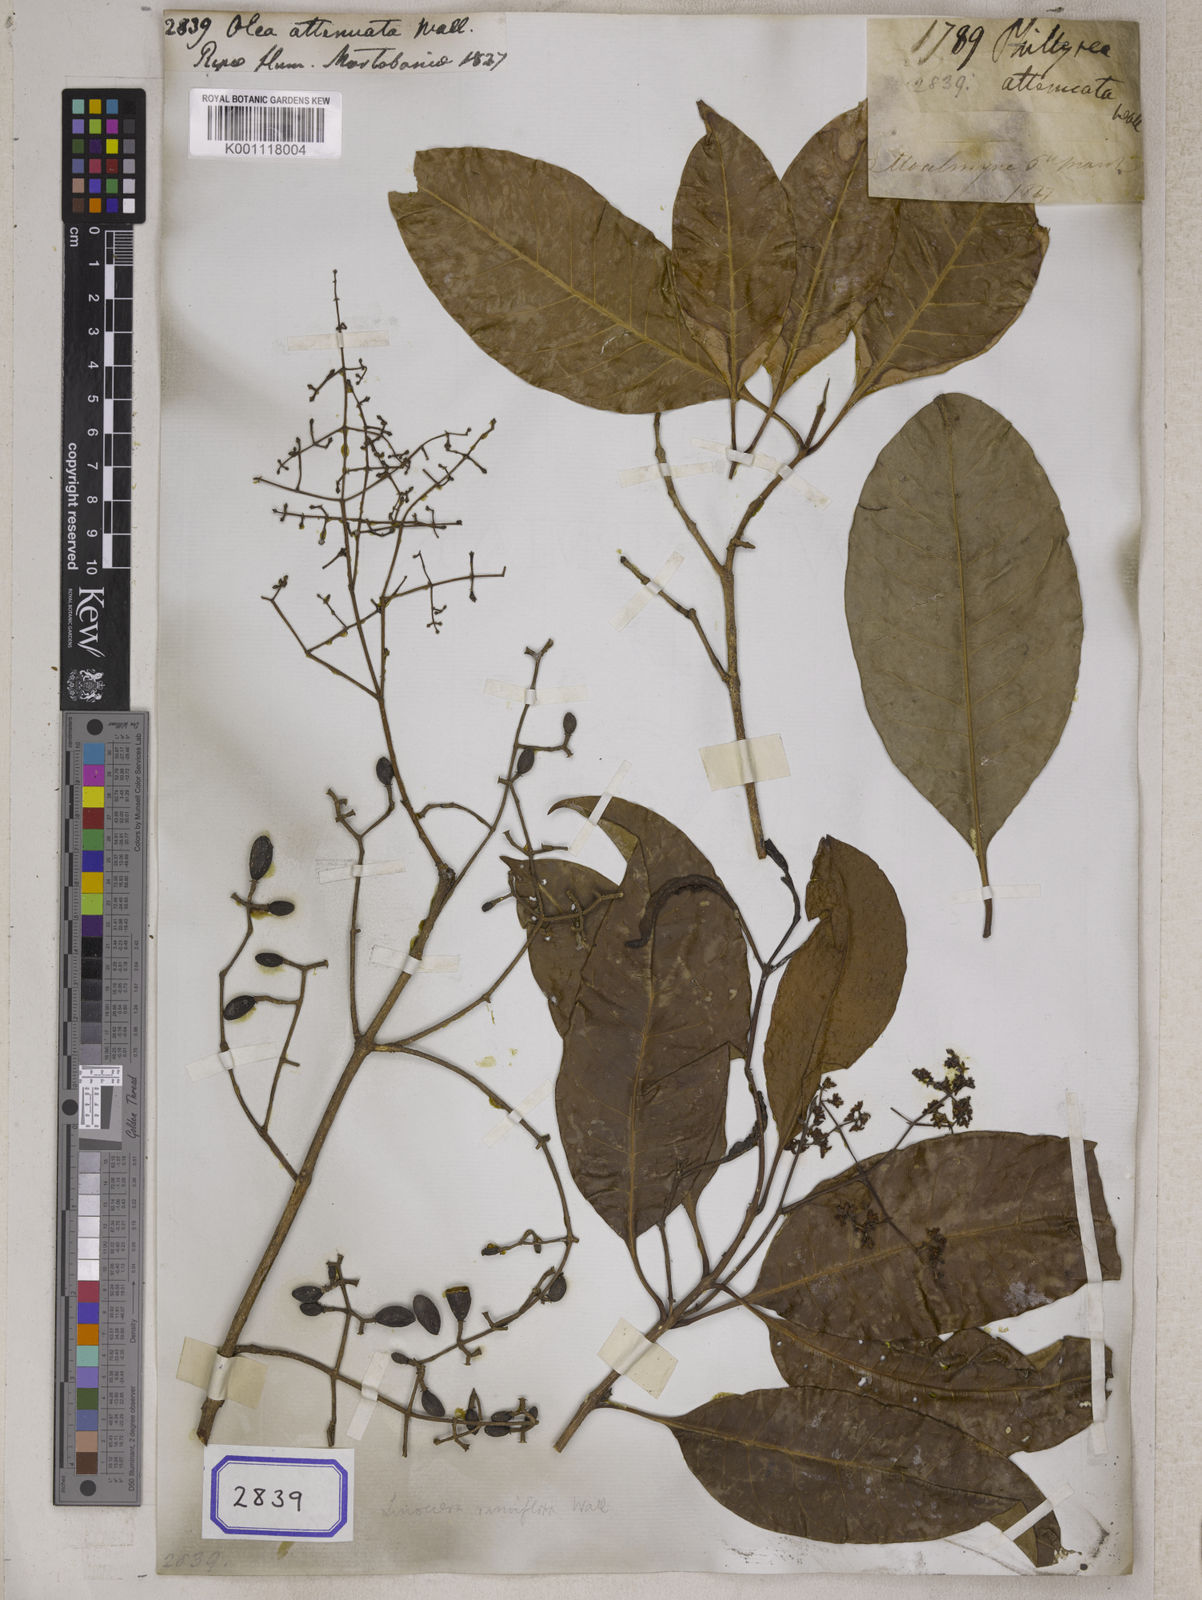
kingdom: Plantae
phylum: Tracheophyta
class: Magnoliopsida
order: Lamiales
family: Oleaceae
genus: Olea
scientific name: Olea
